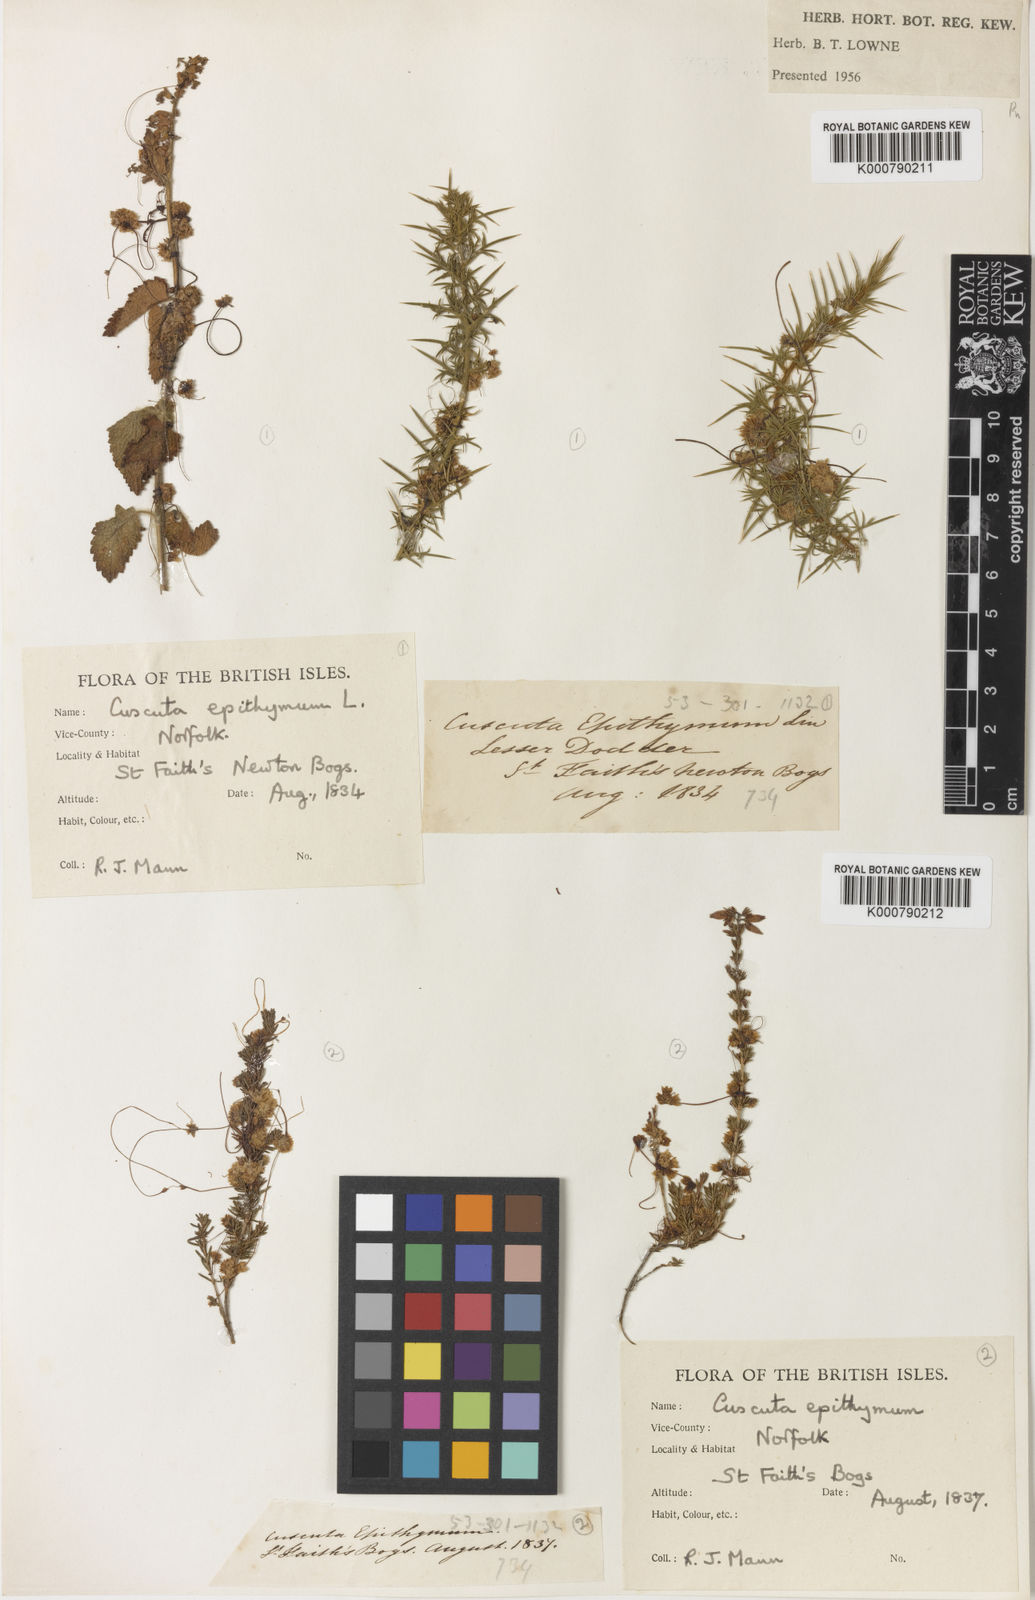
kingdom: Plantae
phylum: Tracheophyta
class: Magnoliopsida
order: Solanales
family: Convolvulaceae
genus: Cuscuta
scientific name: Cuscuta epithymum
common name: Clover dodder
